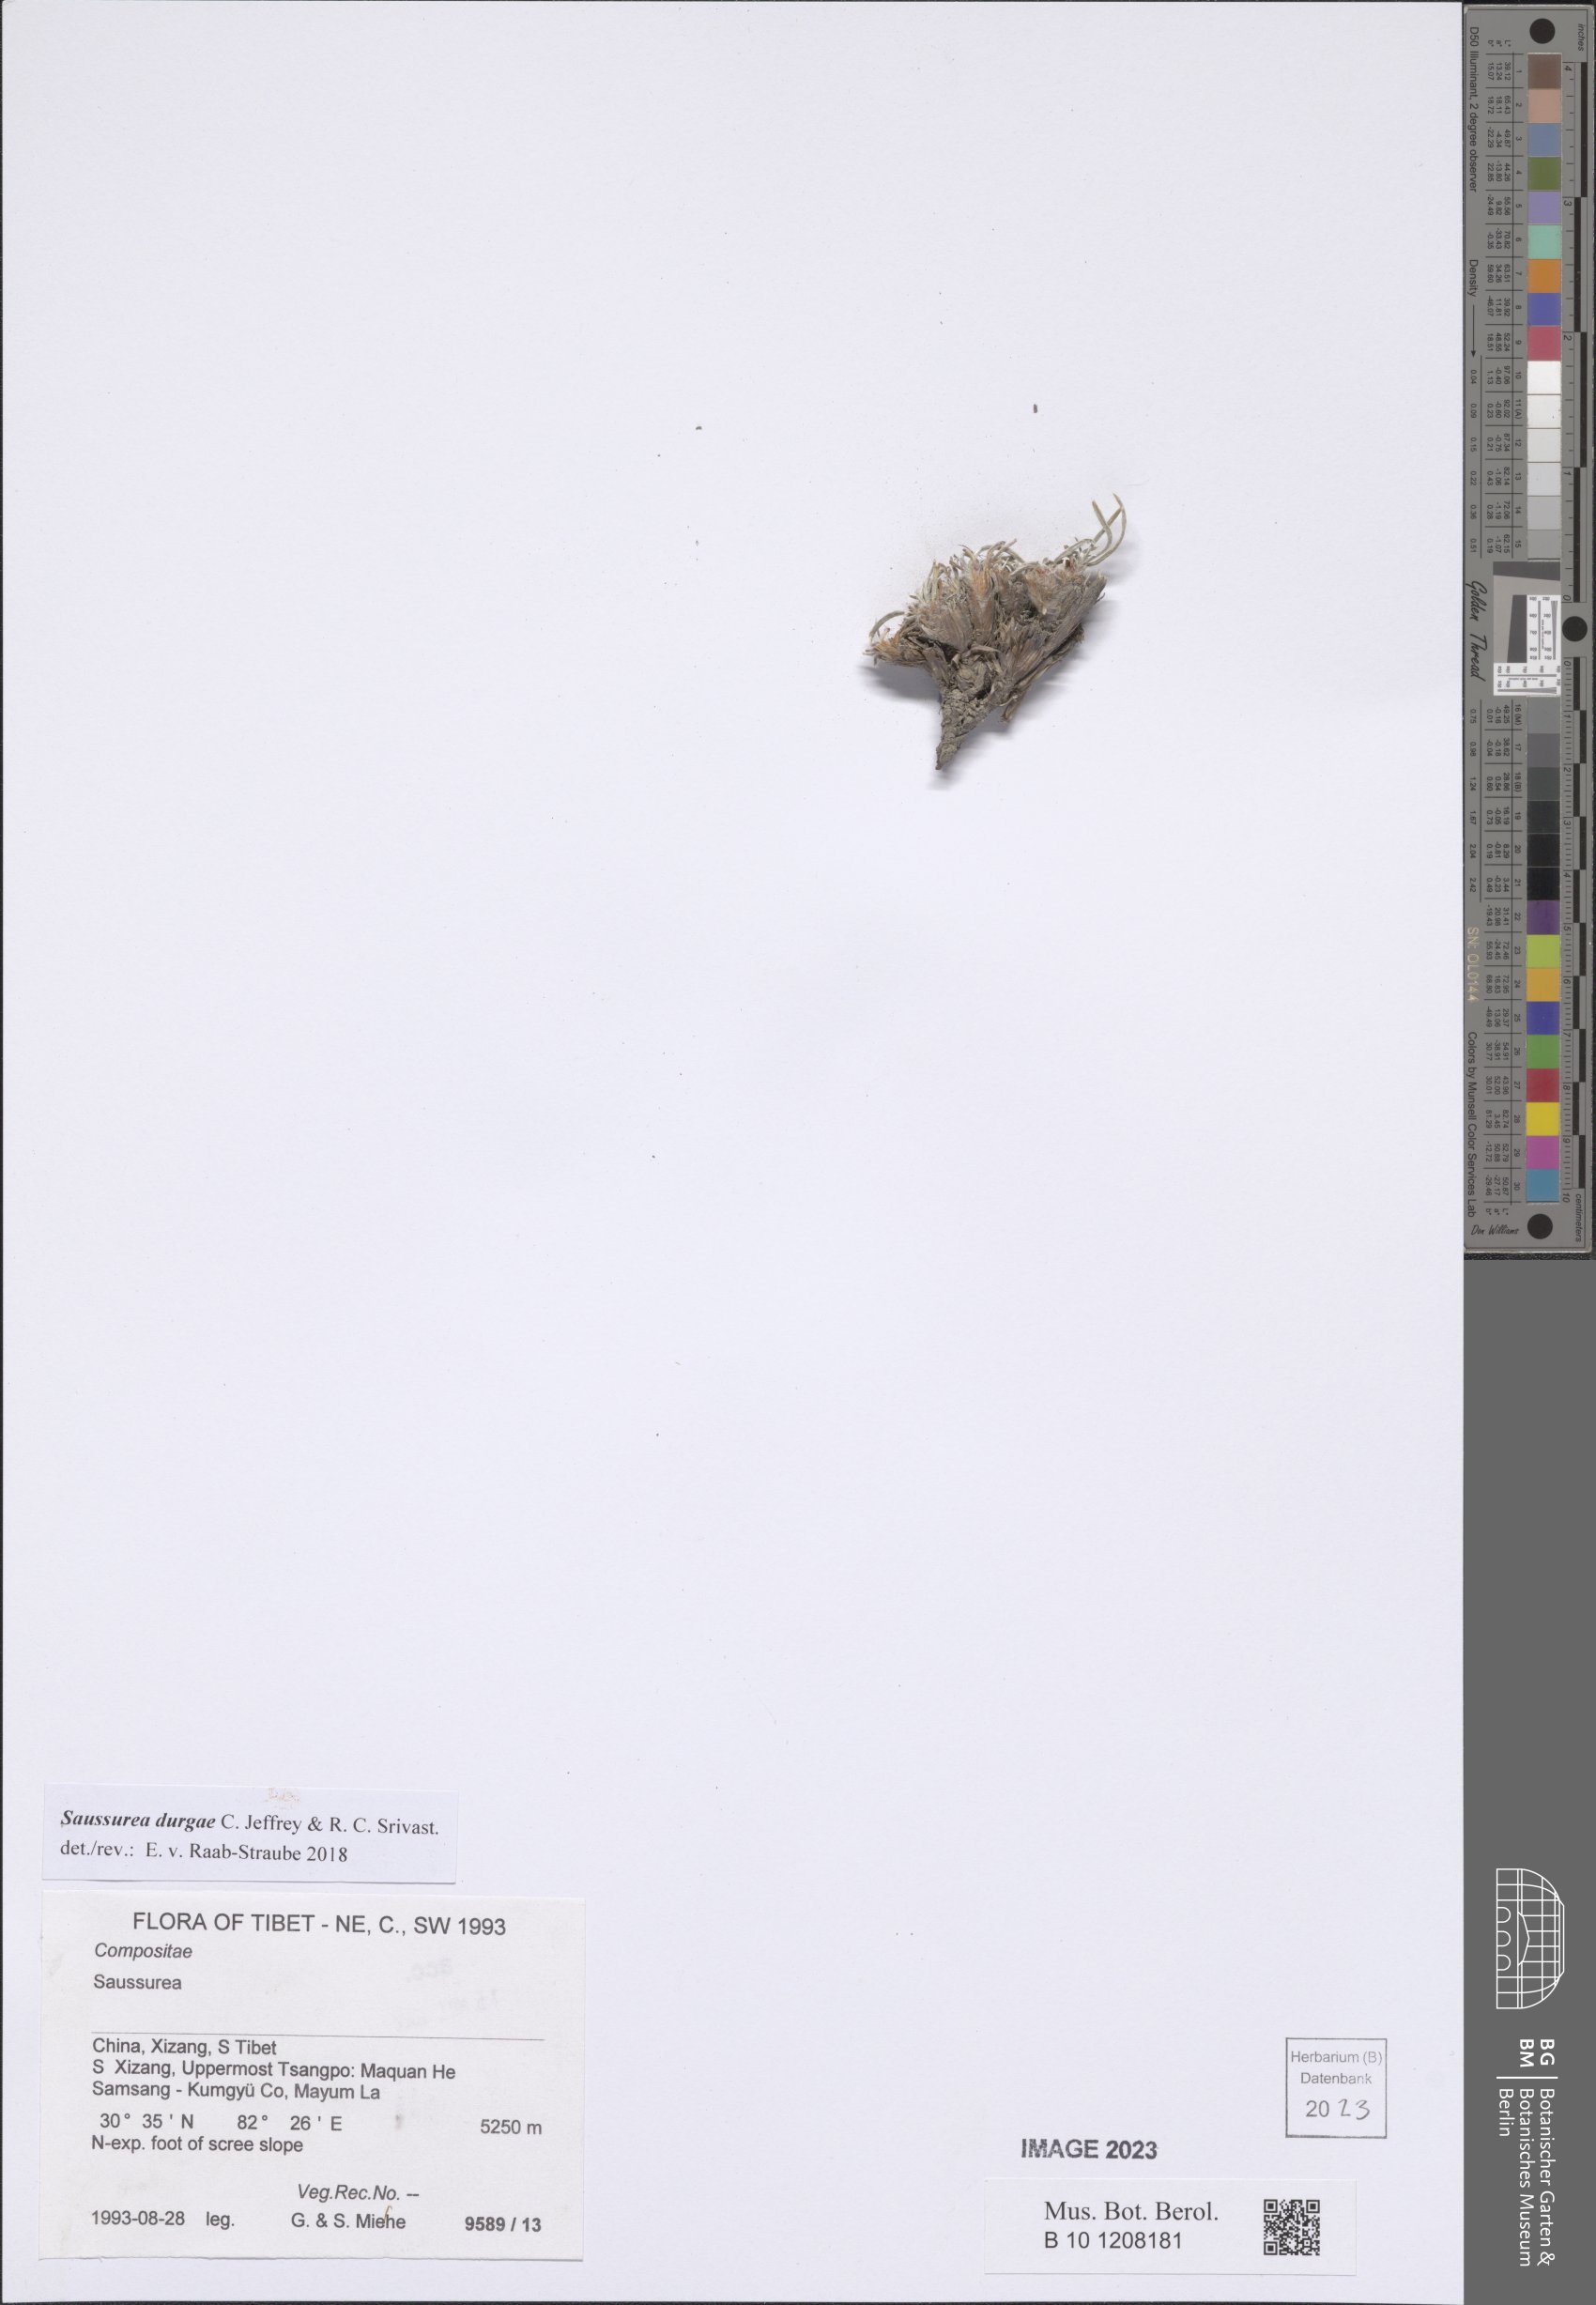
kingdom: Plantae
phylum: Tracheophyta
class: Magnoliopsida
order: Asterales
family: Asteraceae
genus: Saussurea
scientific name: Saussurea durgae
